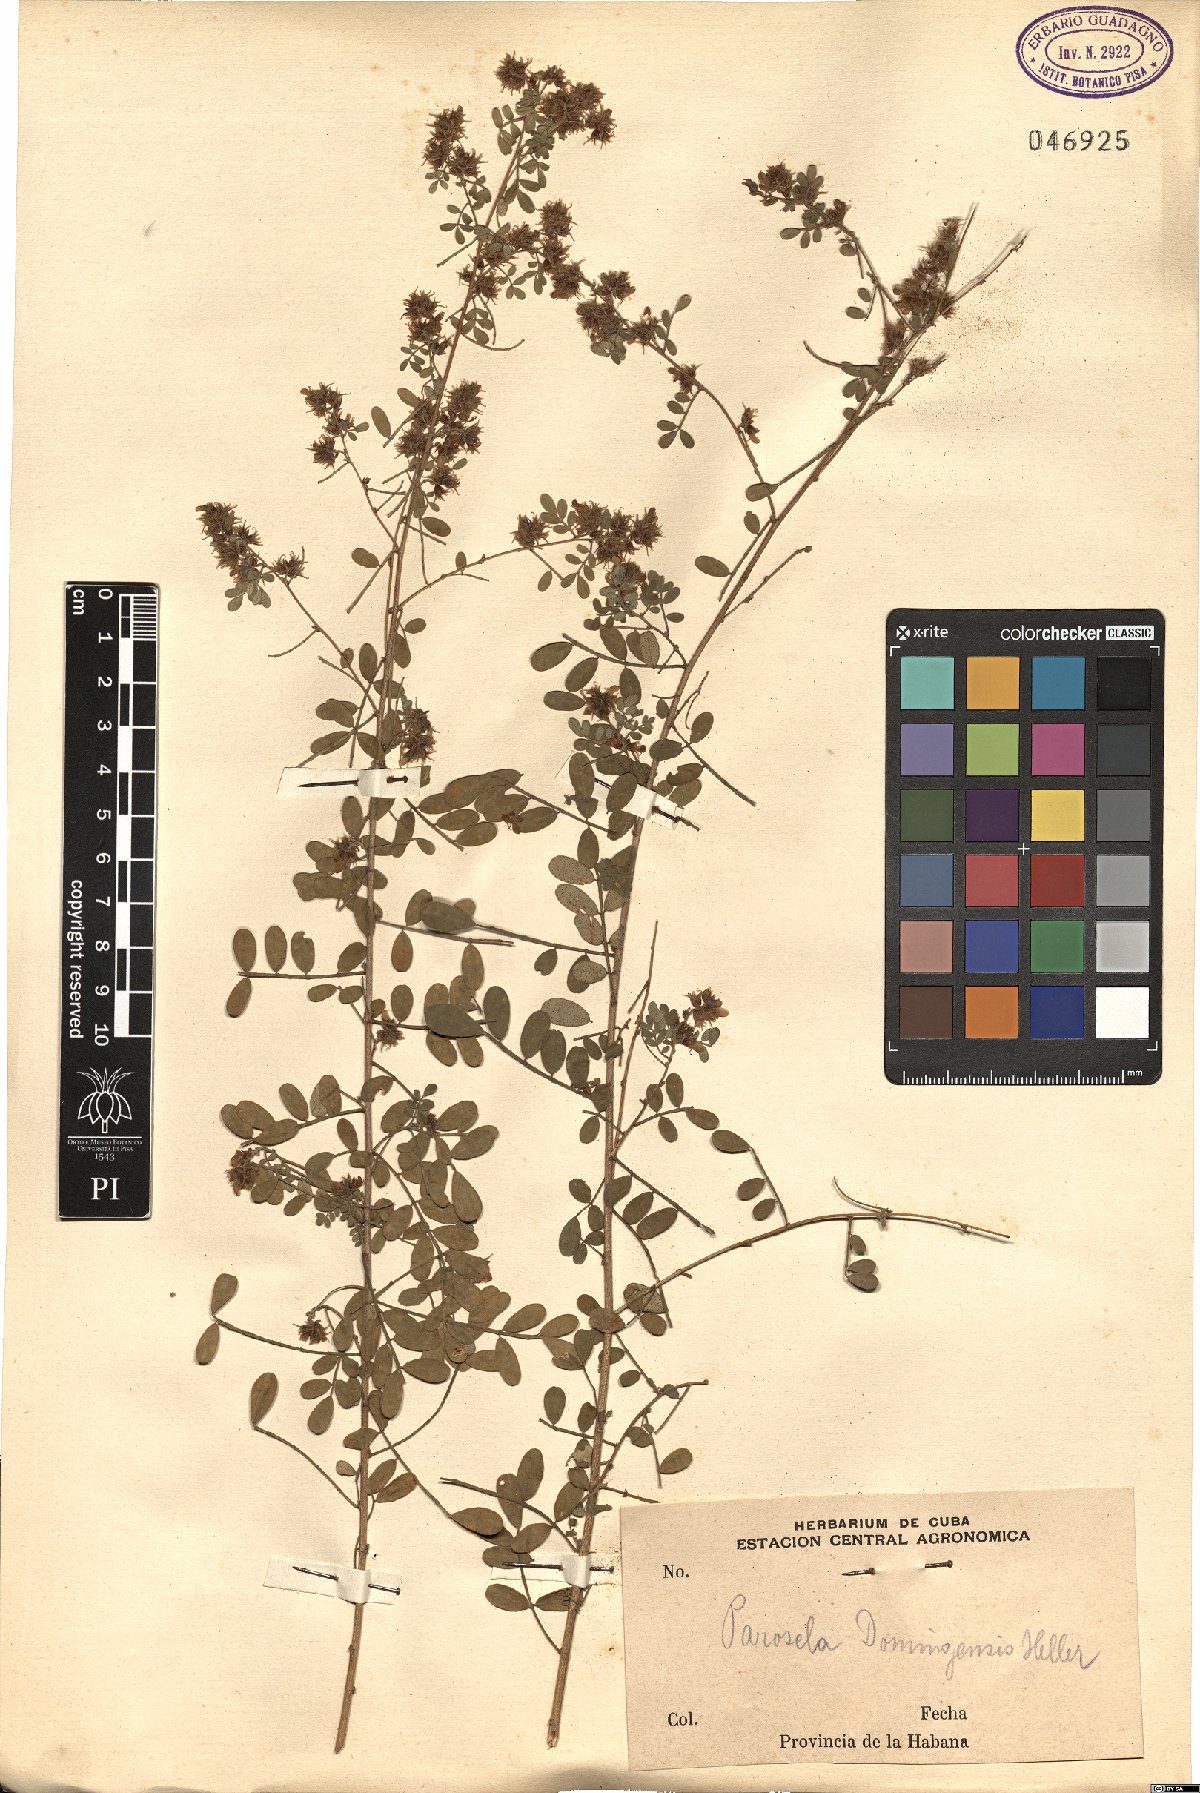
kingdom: Plantae
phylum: Tracheophyta
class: Magnoliopsida
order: Fabales
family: Fabaceae
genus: Dalea
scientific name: Dalea carthagenensis
